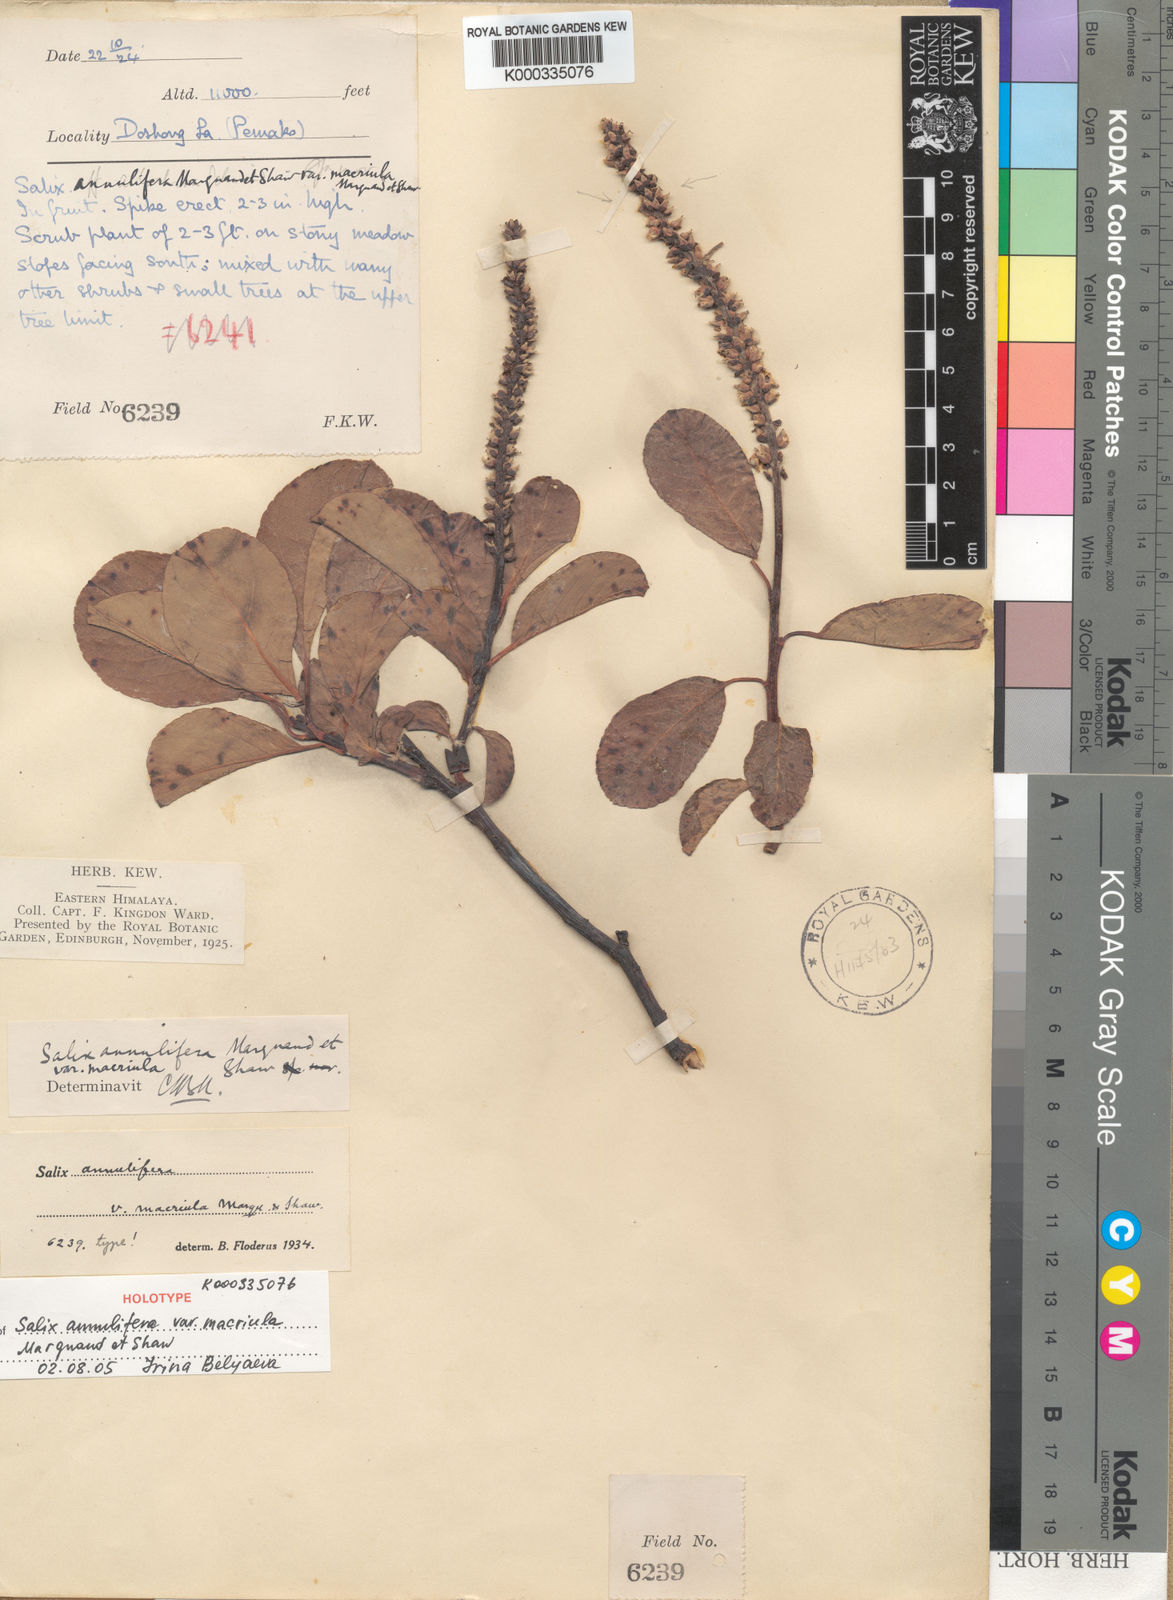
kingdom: Plantae
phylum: Tracheophyta
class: Magnoliopsida
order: Malpighiales
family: Salicaceae
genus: Salix
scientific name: Salix
